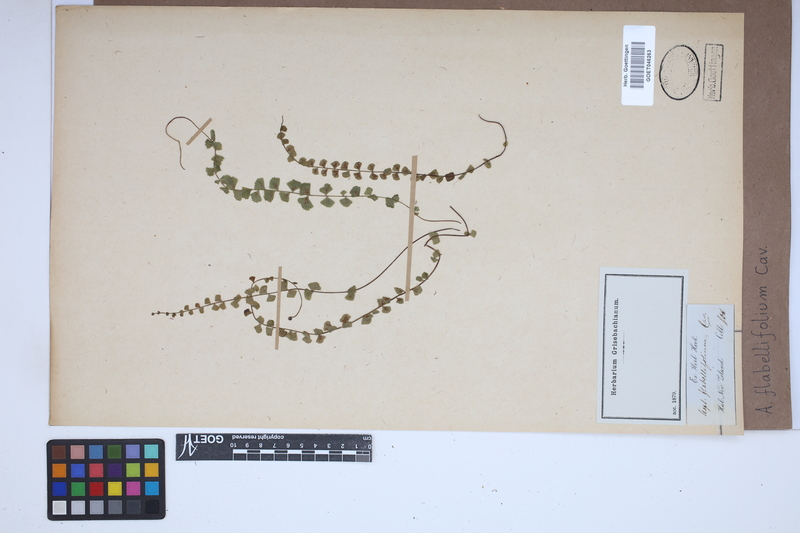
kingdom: Plantae
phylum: Tracheophyta
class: Polypodiopsida
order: Polypodiales
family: Aspleniaceae
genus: Asplenium
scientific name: Asplenium flabellifolium
